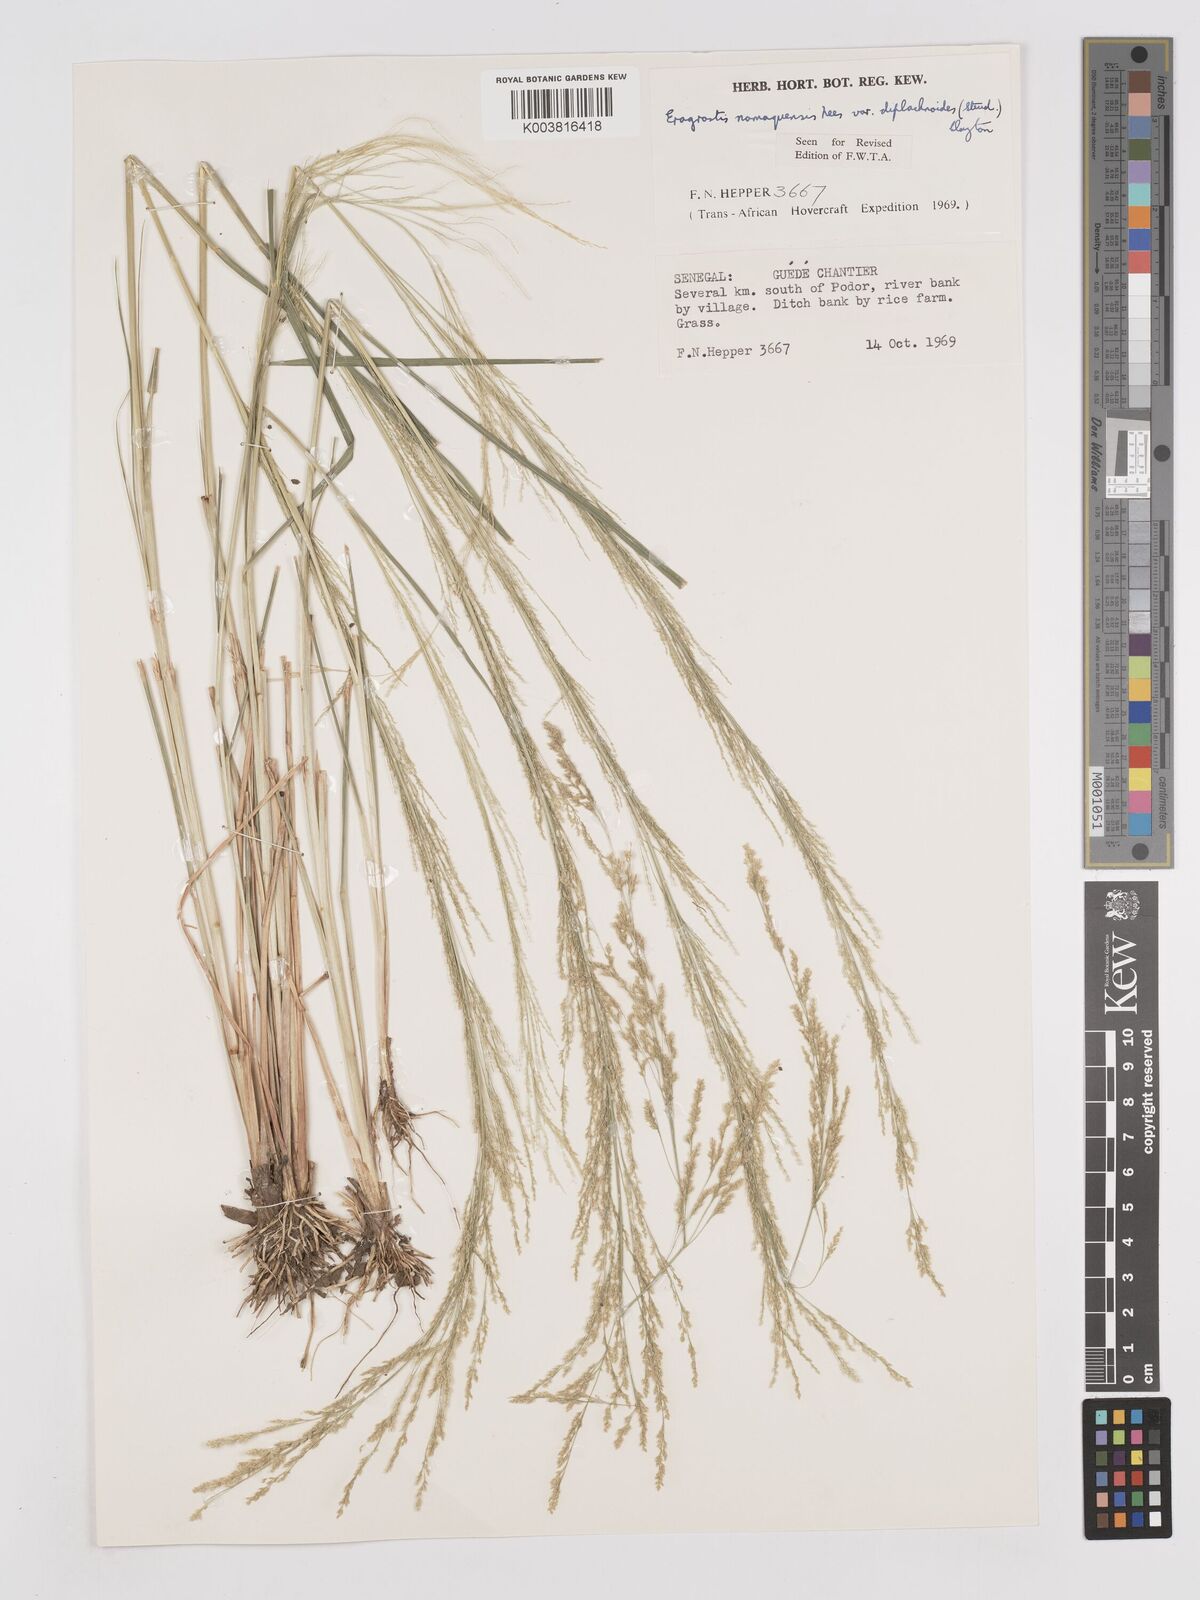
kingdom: Plantae
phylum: Tracheophyta
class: Liliopsida
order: Poales
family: Poaceae
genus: Eragrostis
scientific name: Eragrostis japonica
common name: Pond lovegrass
